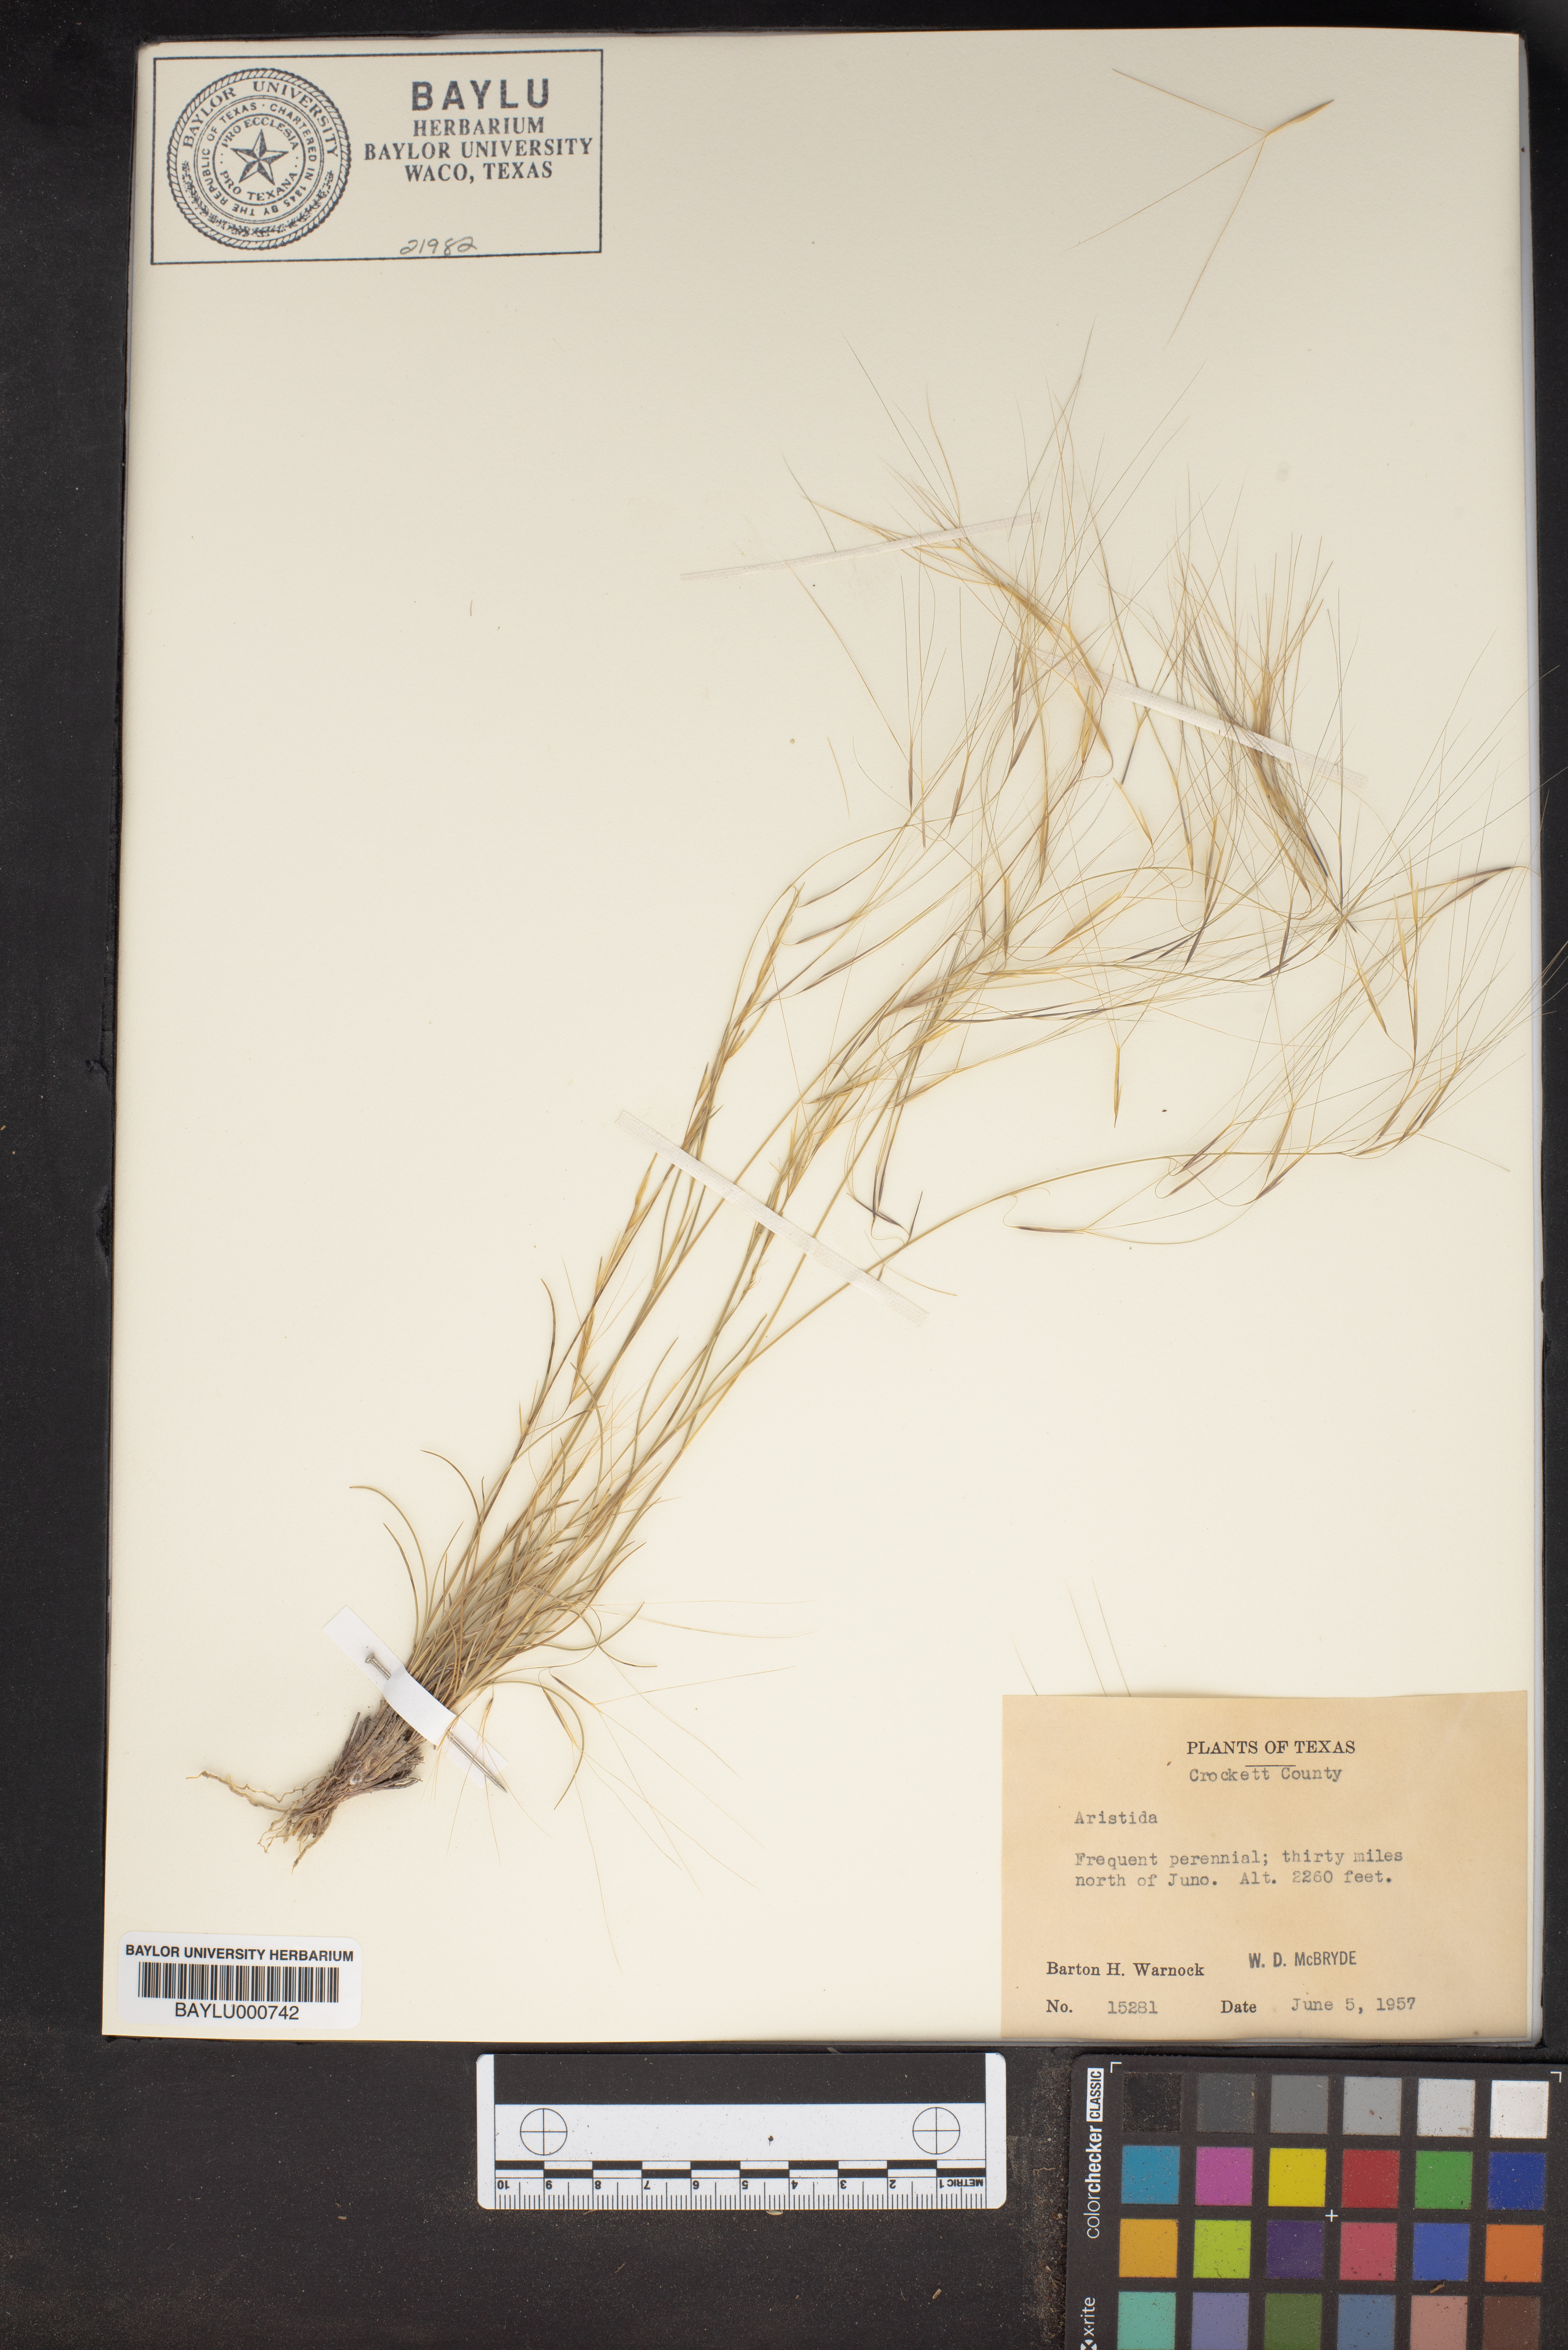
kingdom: Plantae
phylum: Tracheophyta
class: Liliopsida
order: Poales
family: Poaceae
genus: Aristida
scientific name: Aristida
